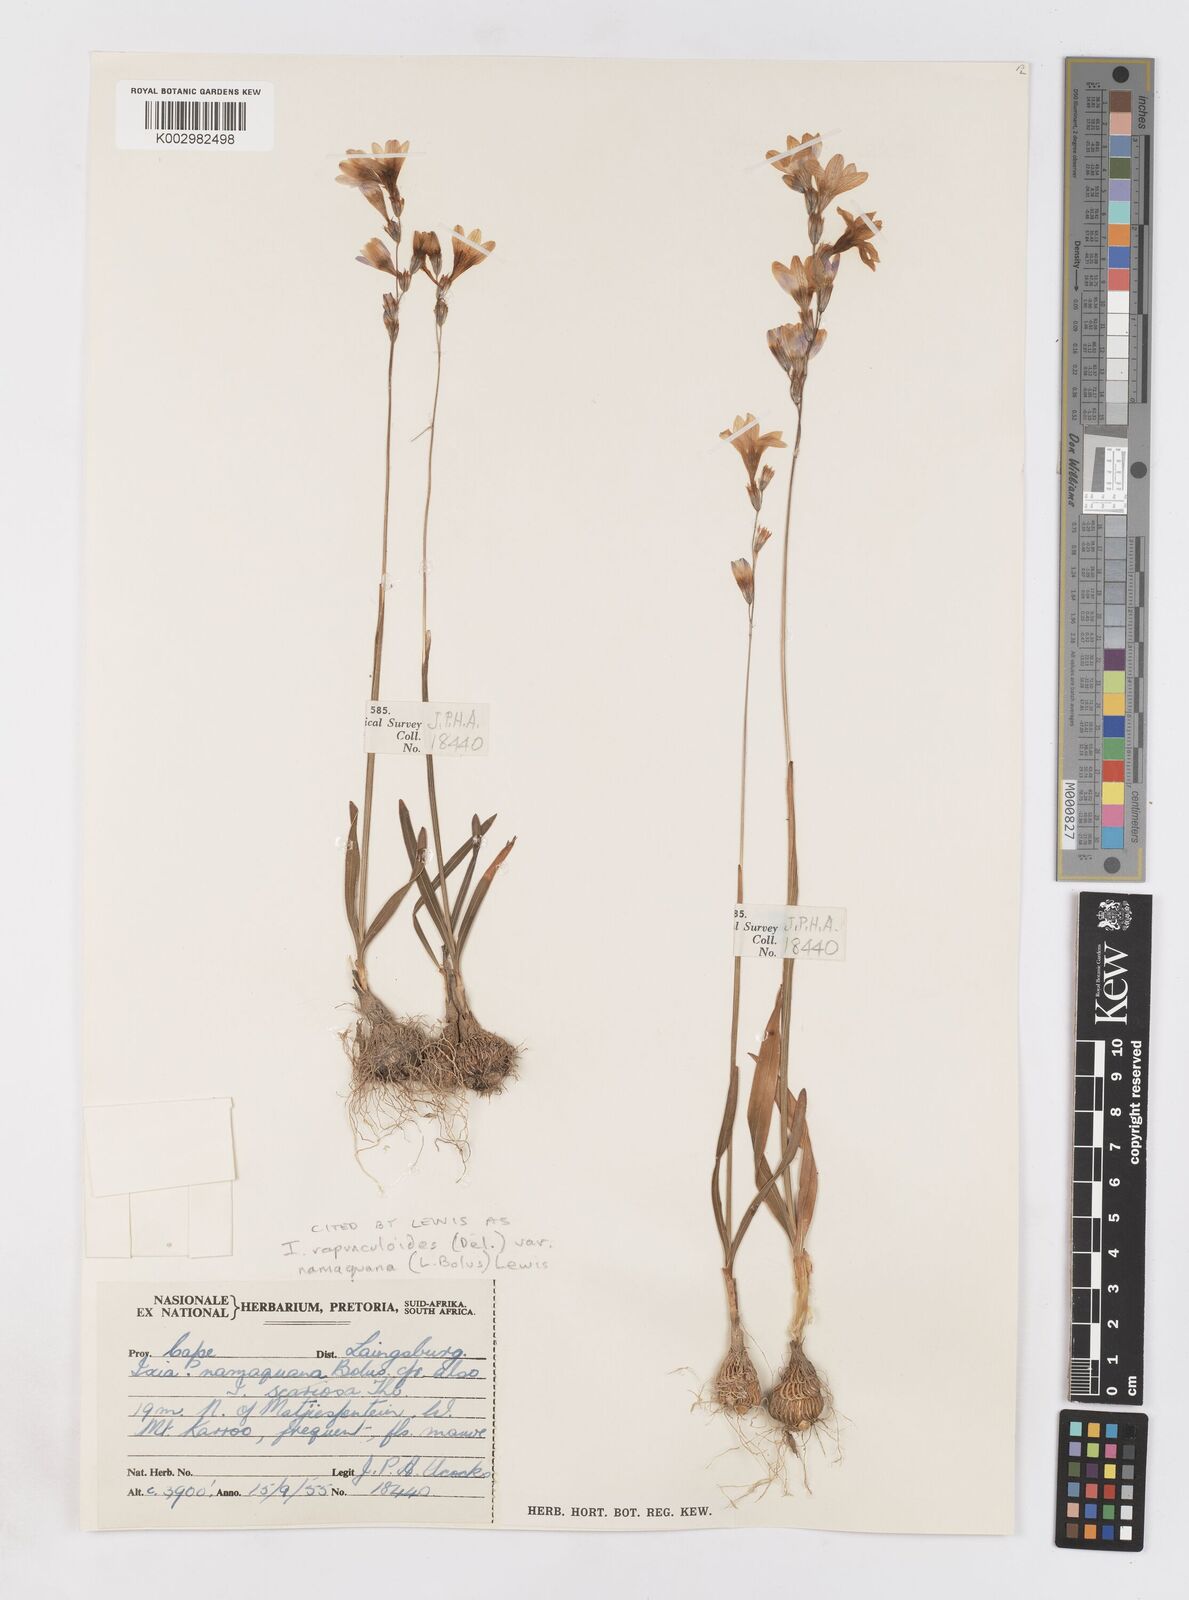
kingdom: Plantae
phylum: Tracheophyta
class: Liliopsida
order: Asparagales
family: Iridaceae
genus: Ixia
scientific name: Ixia rapunculoides
